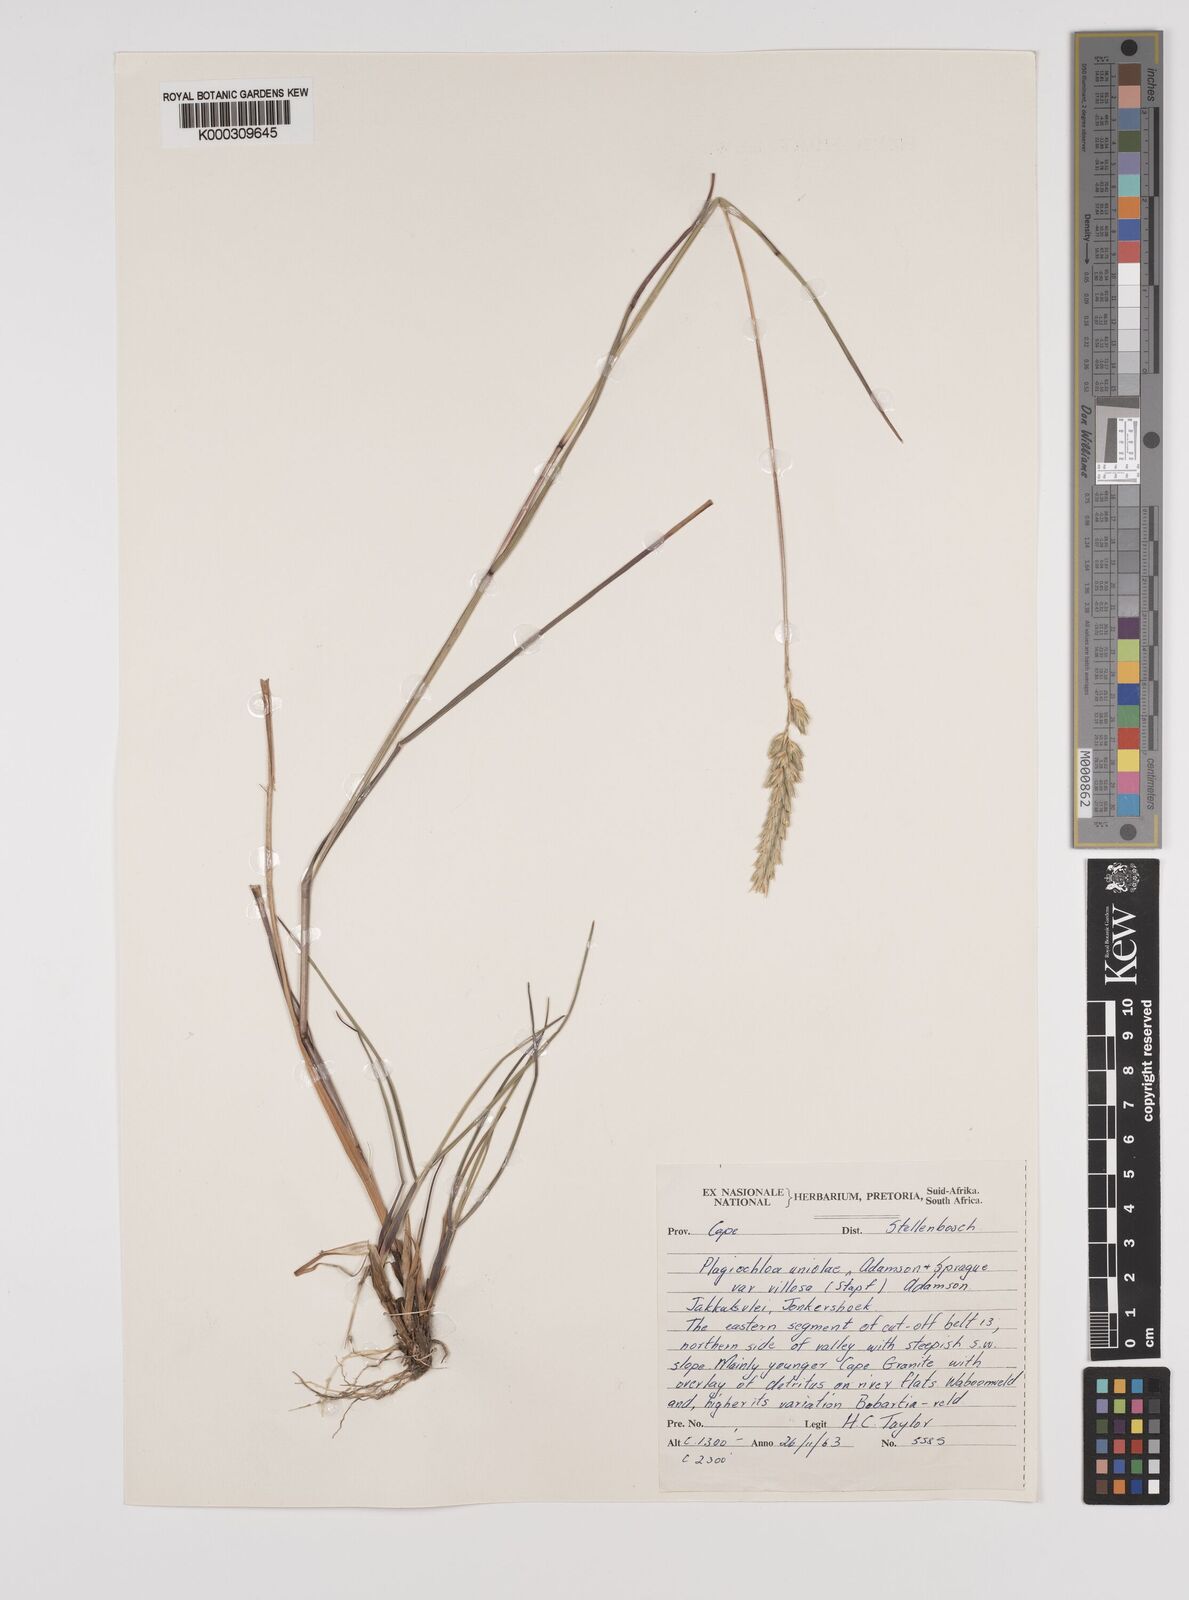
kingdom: Plantae
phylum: Tracheophyta
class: Liliopsida
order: Poales
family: Poaceae
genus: Tribolium
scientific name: Tribolium uniolae
